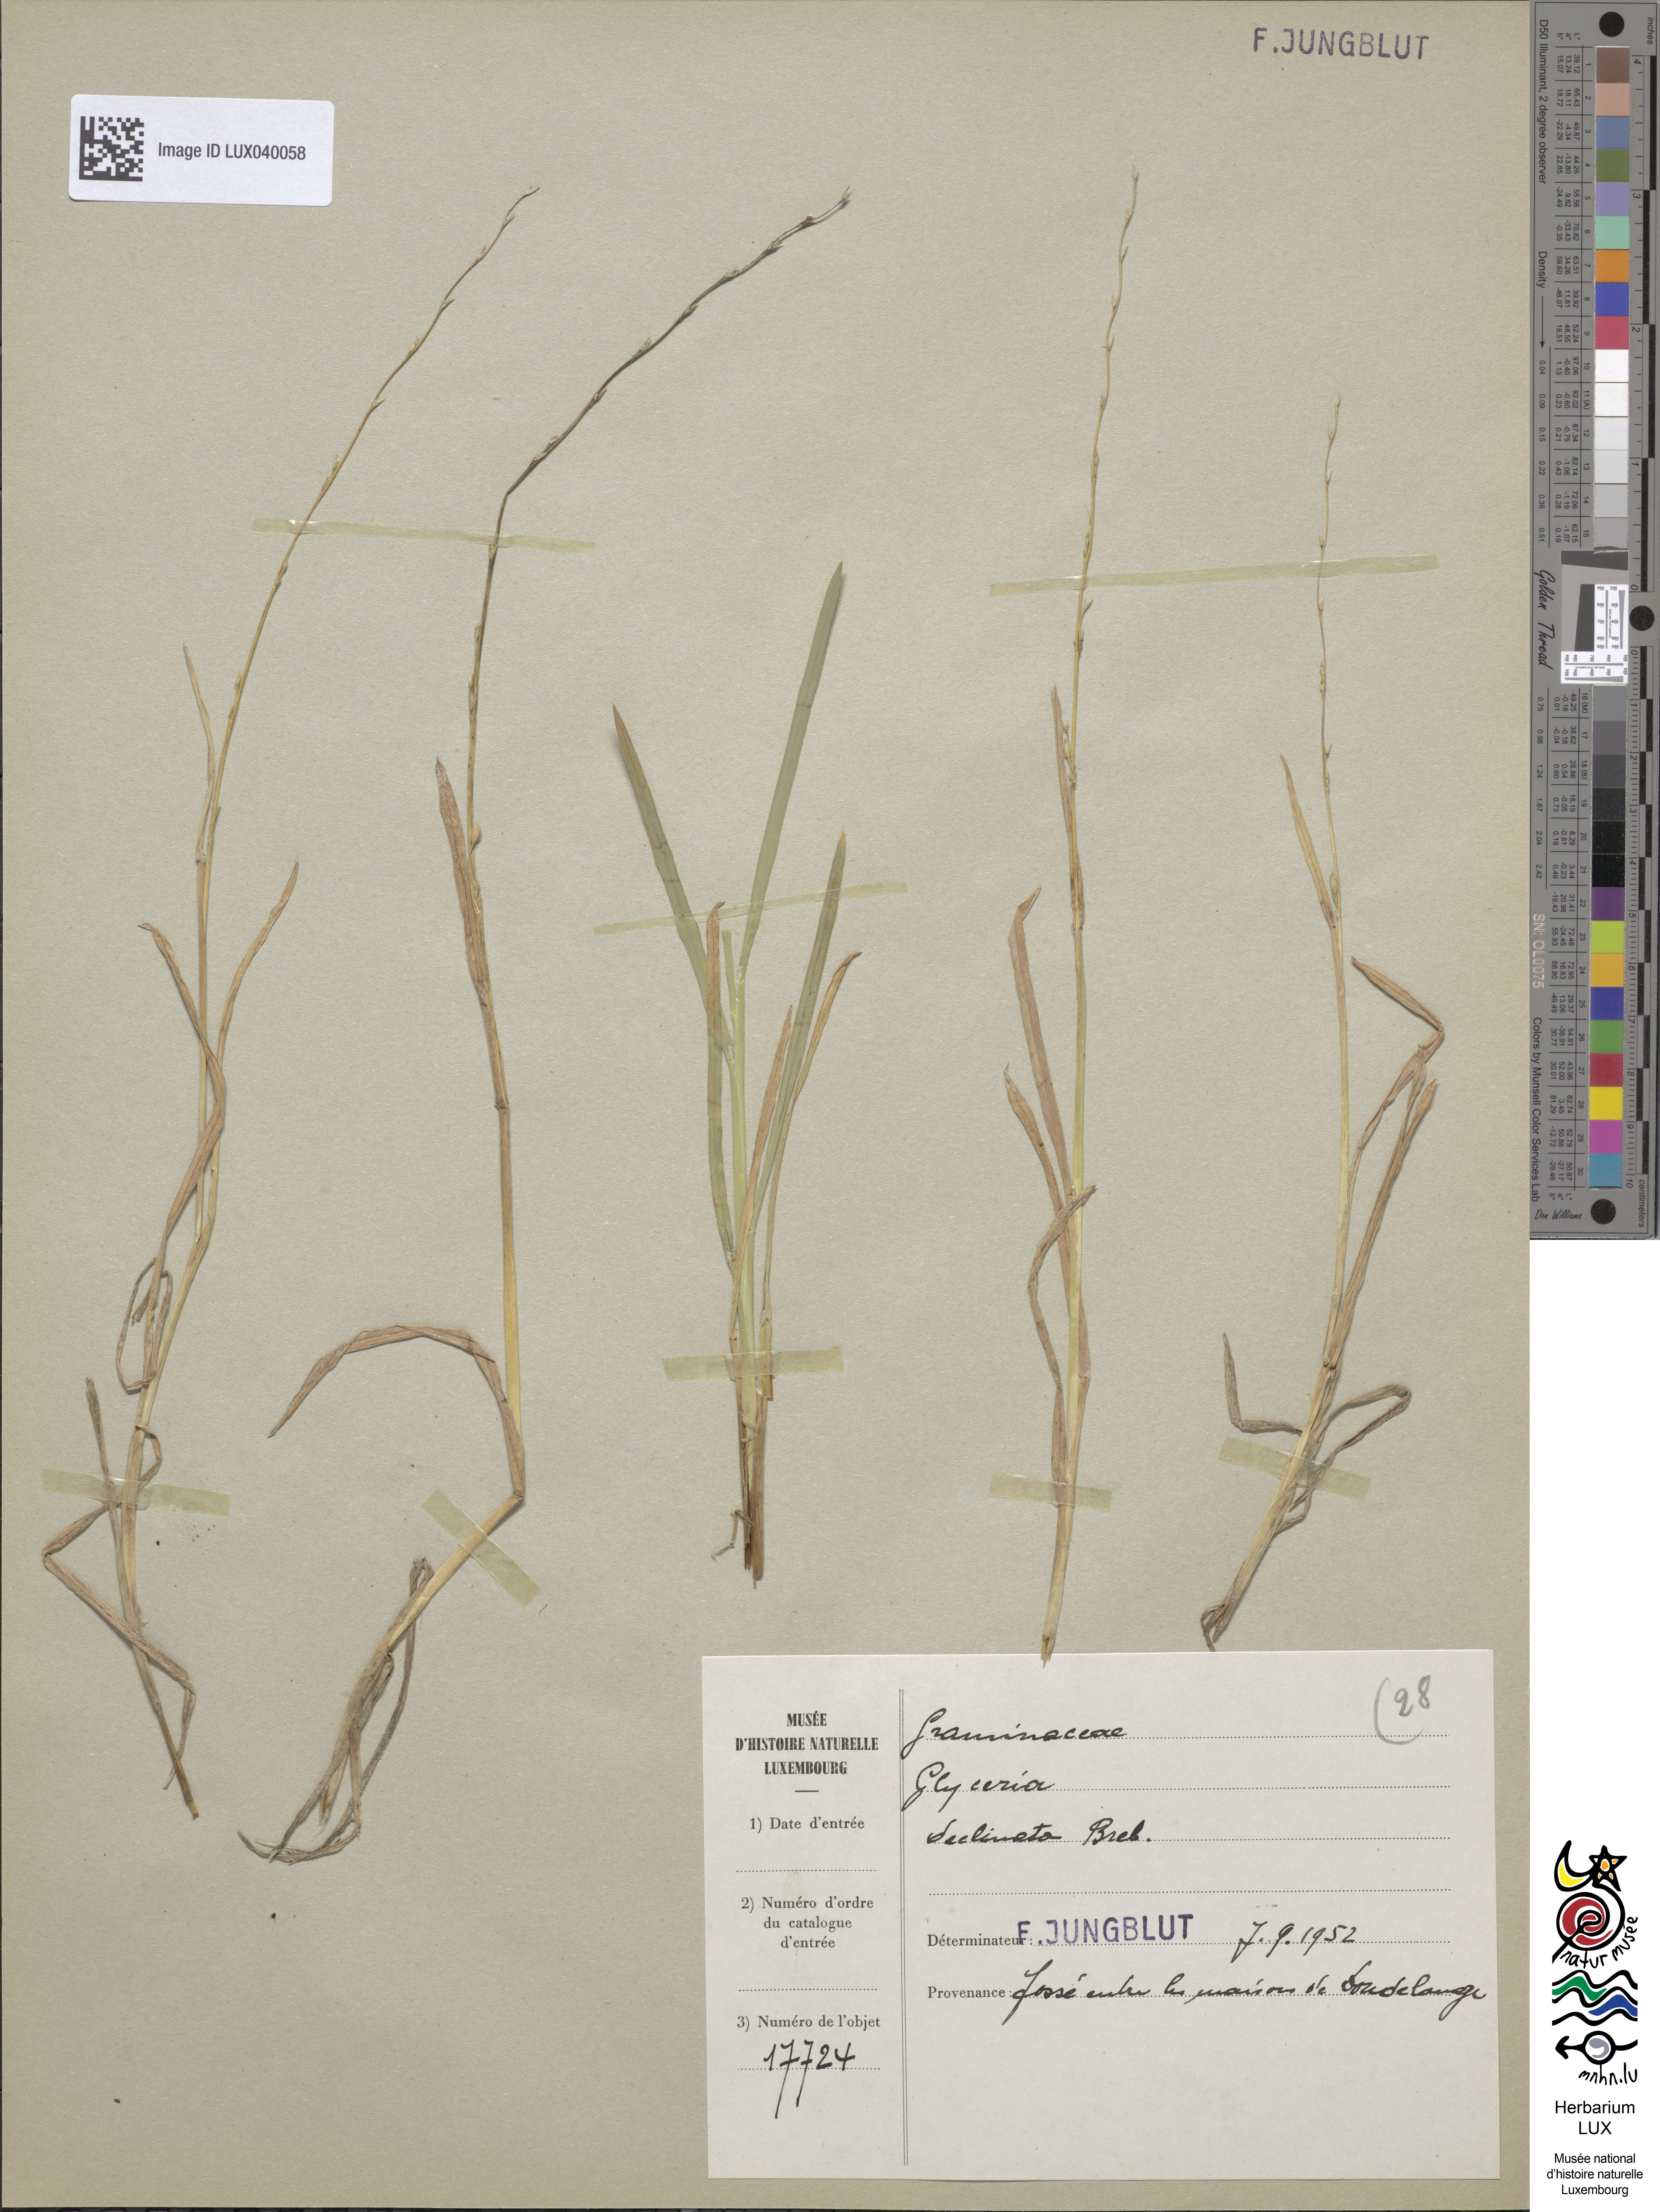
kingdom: Plantae
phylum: Tracheophyta
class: Liliopsida
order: Poales
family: Poaceae
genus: Glyceria
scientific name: Glyceria declinata
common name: Small sweet-grass
